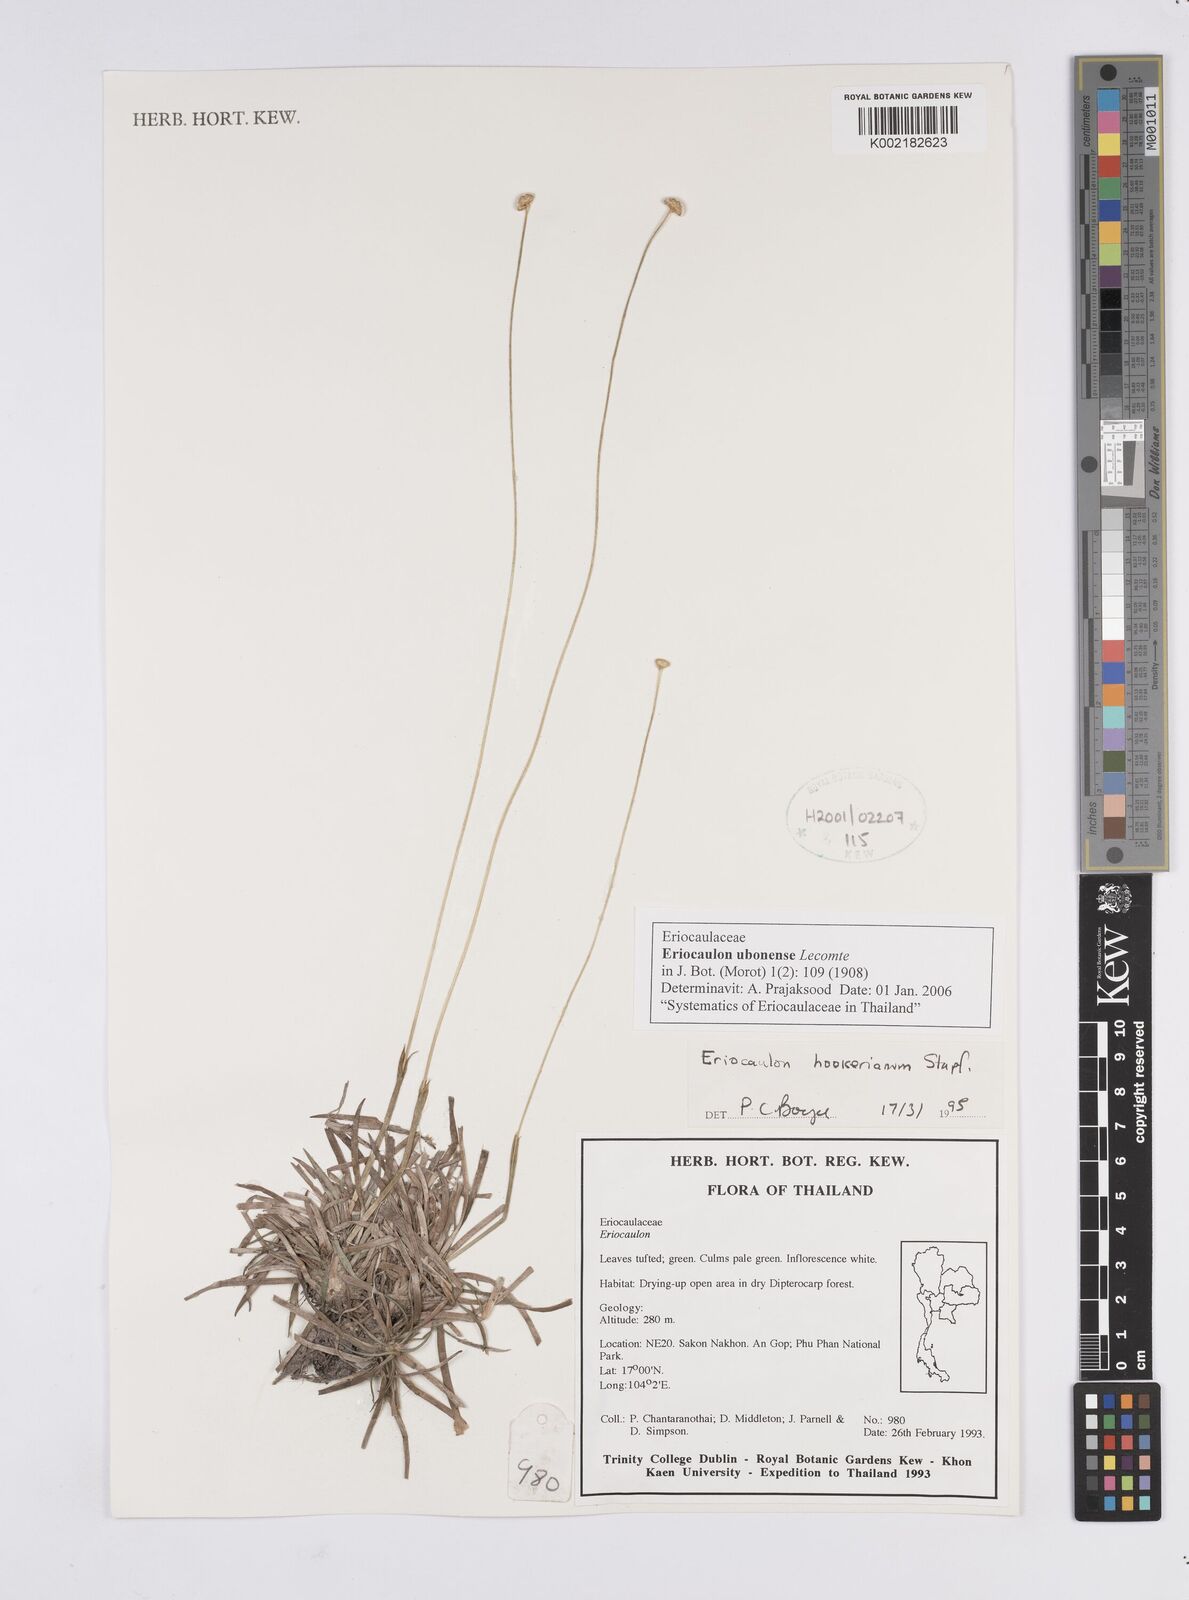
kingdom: Plantae
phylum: Tracheophyta
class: Liliopsida
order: Poales
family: Eriocaulaceae
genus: Eriocaulon
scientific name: Eriocaulon ubonense
